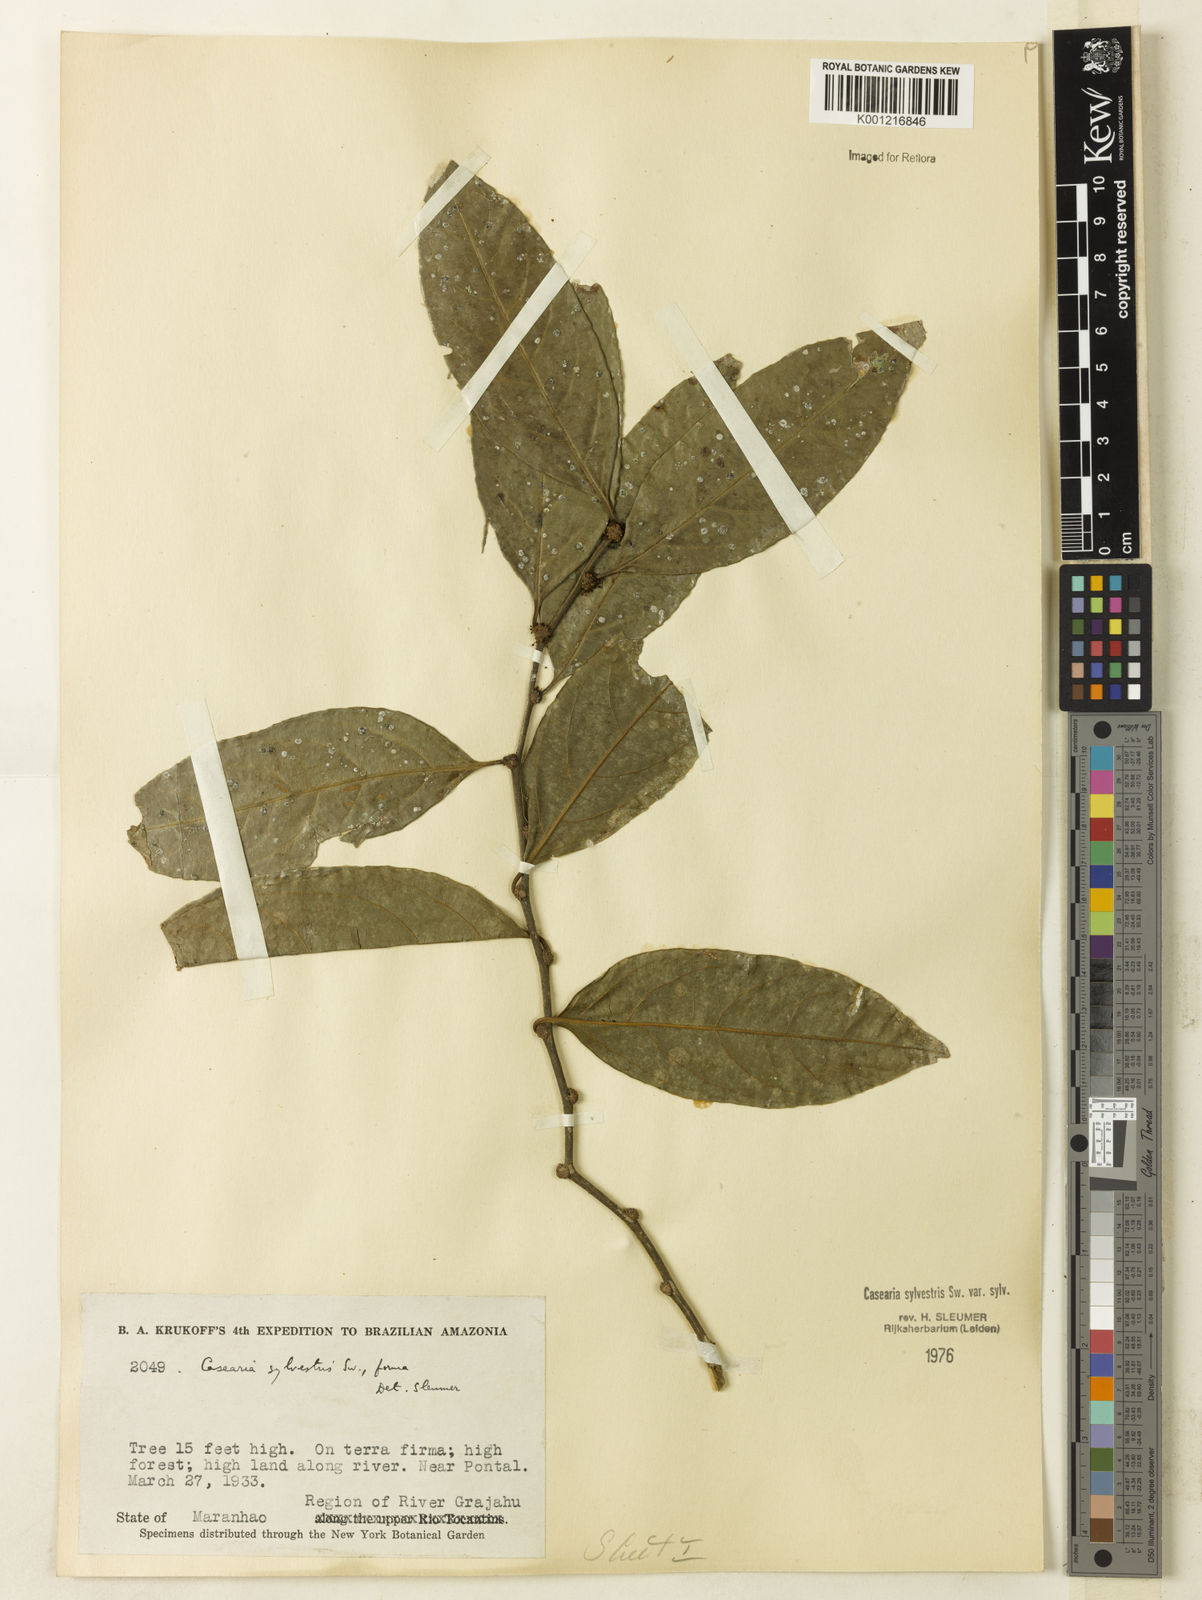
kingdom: Plantae
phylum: Tracheophyta
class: Magnoliopsida
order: Malpighiales
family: Salicaceae
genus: Casearia
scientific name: Casearia sylvestris
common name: Wild sage
